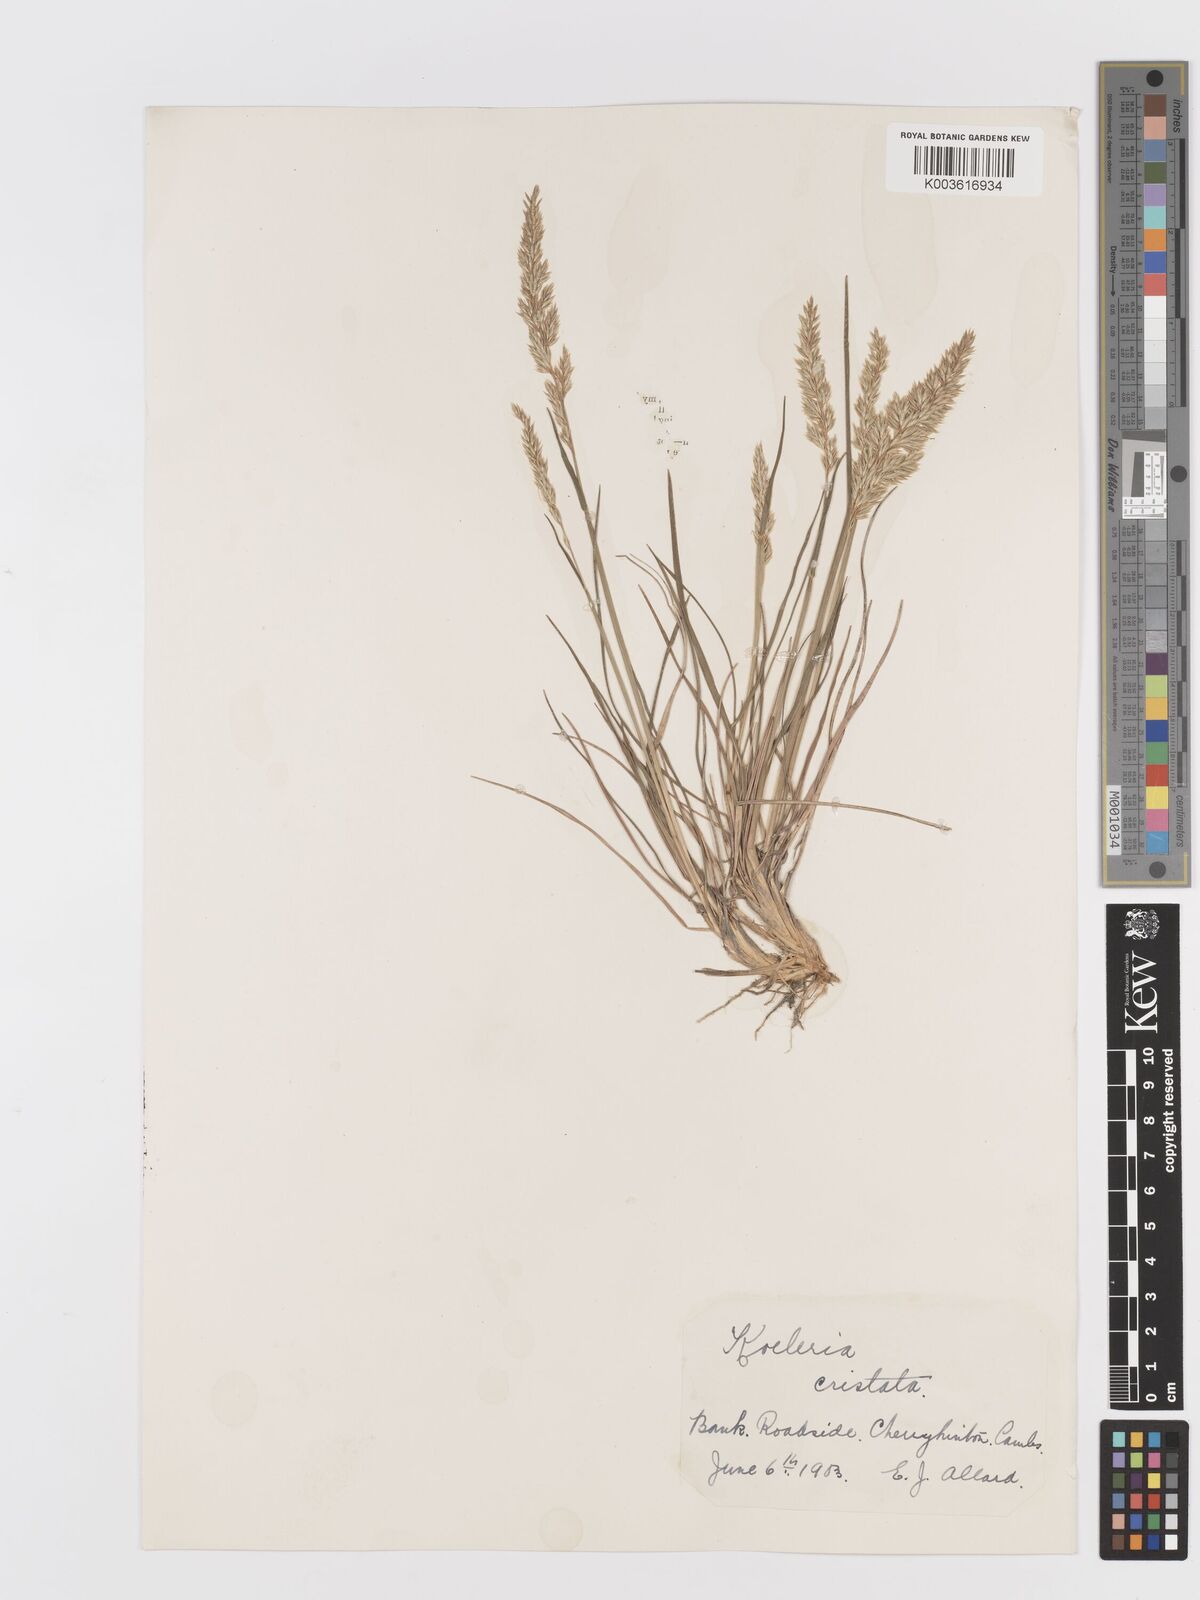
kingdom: Plantae
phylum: Tracheophyta
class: Liliopsida
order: Poales
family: Poaceae
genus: Koeleria
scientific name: Koeleria macrantha
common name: Crested hair-grass
